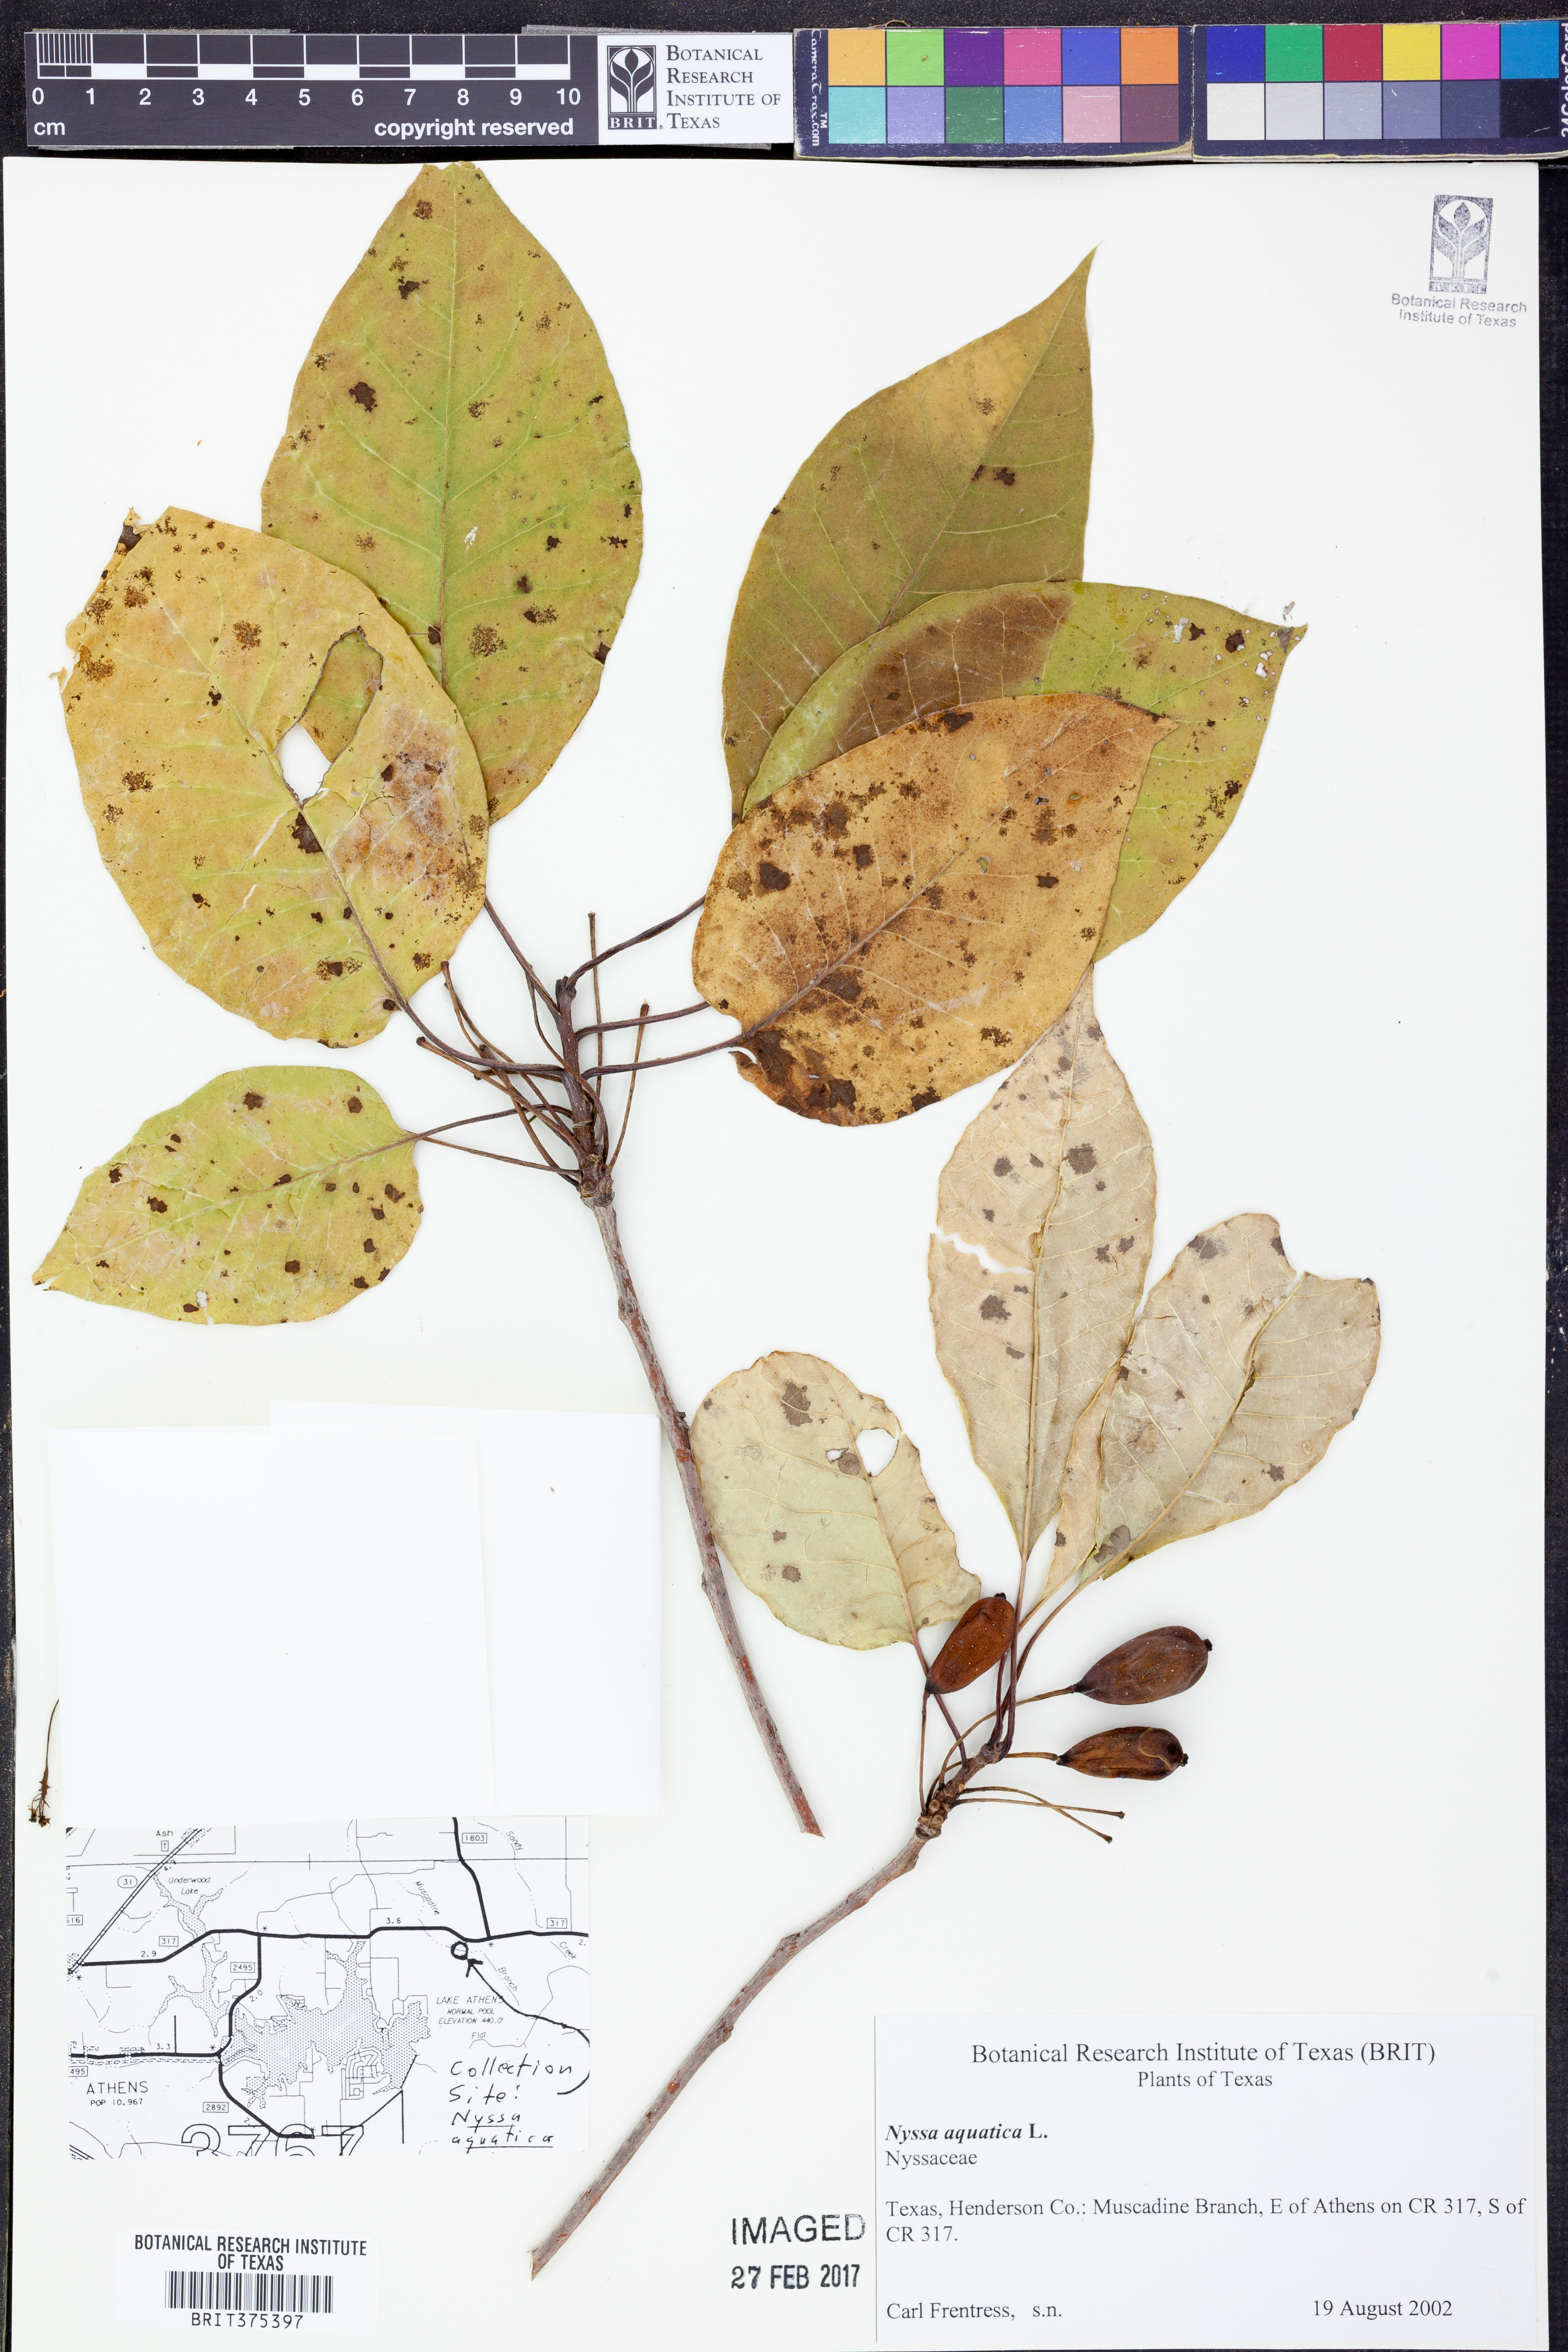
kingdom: Plantae
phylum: Tracheophyta
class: Magnoliopsida
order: Cornales
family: Nyssaceae
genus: Nyssa
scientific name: Nyssa aquatica
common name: Swamp tupelo
